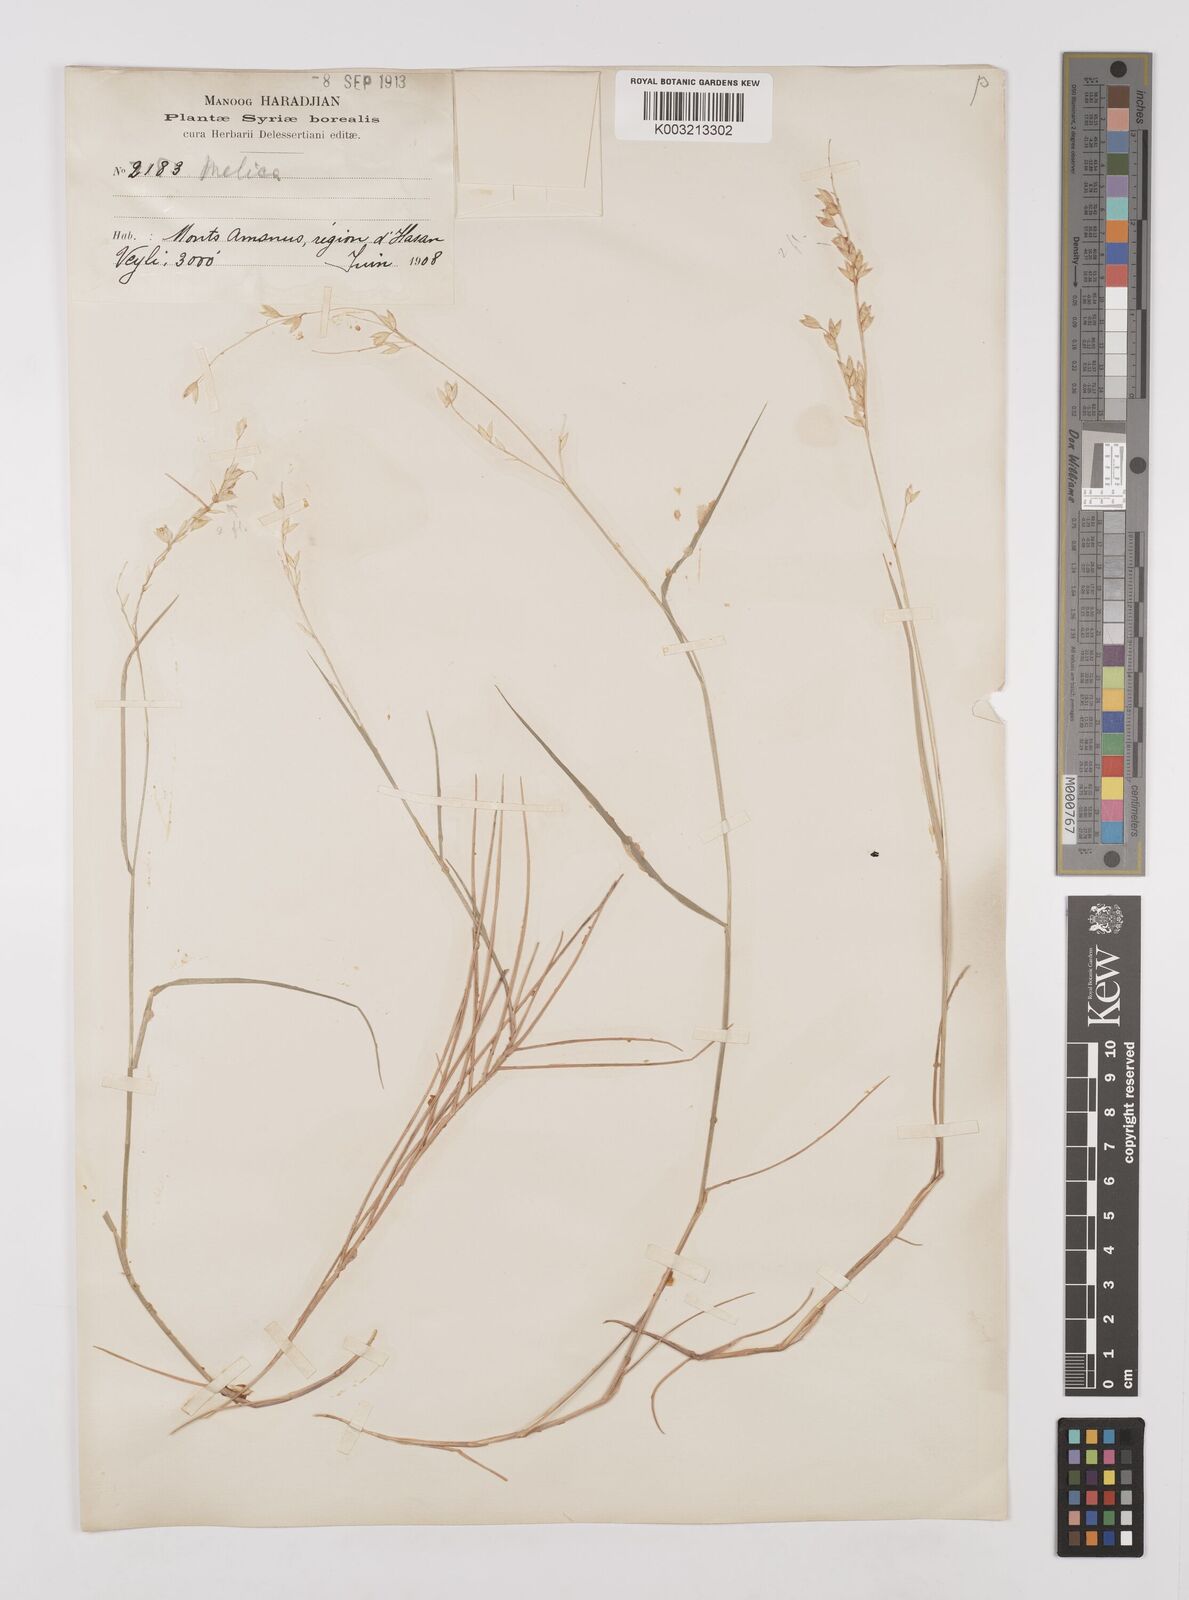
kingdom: Plantae
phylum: Tracheophyta
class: Liliopsida
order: Poales
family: Poaceae
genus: Melica
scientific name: Melica minuta
